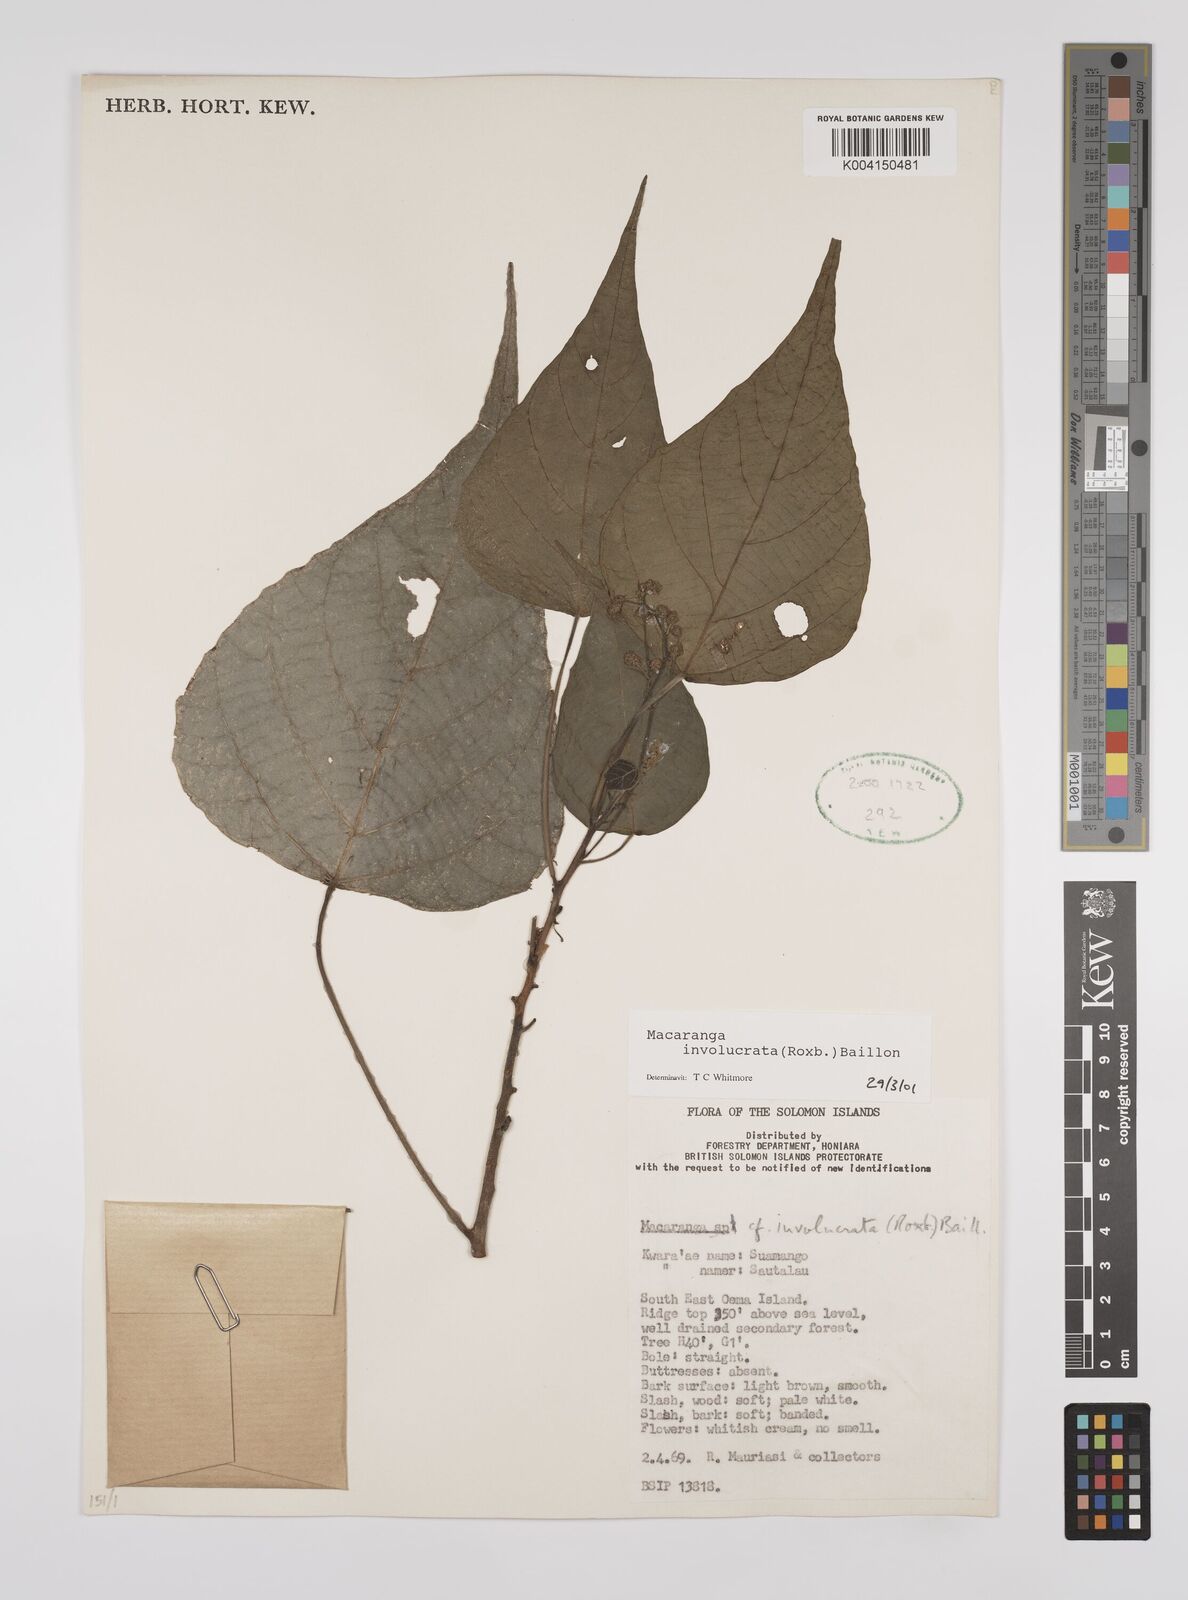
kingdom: Plantae
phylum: Tracheophyta
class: Magnoliopsida
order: Malpighiales
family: Euphorbiaceae
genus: Macaranga
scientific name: Macaranga involucrata
